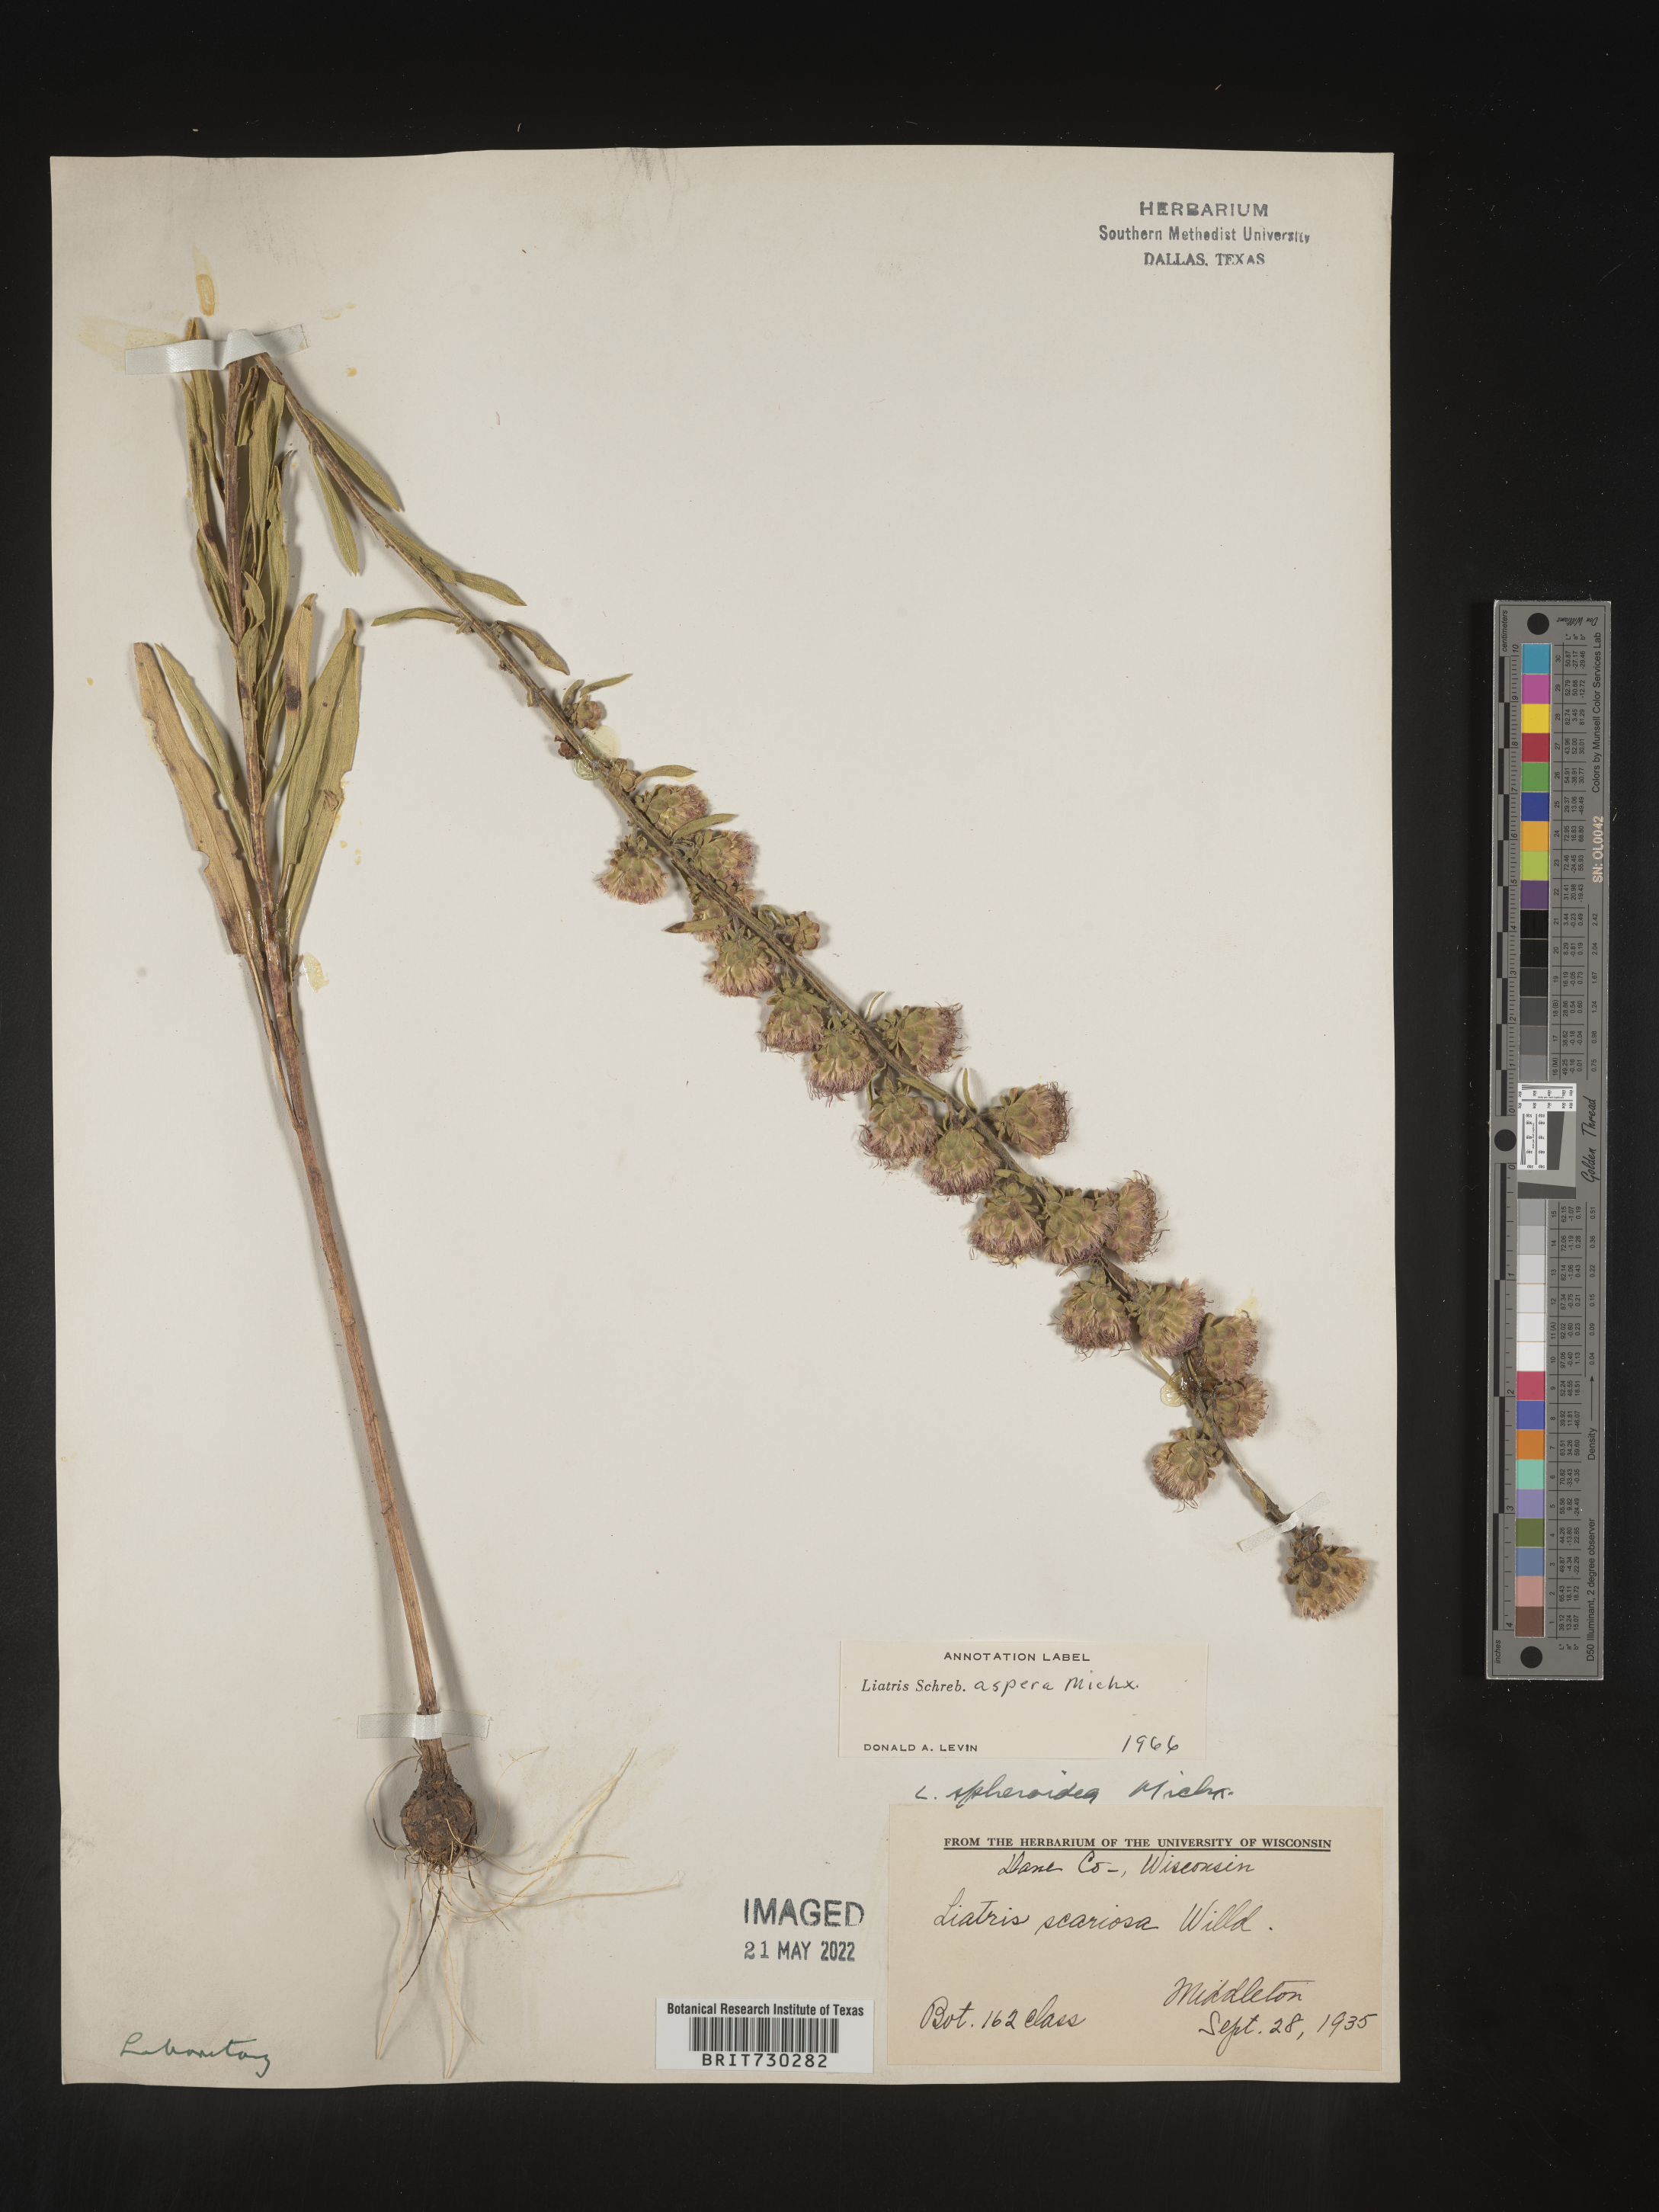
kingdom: Plantae
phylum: Tracheophyta
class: Magnoliopsida
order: Asterales
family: Asteraceae
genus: Liatris
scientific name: Liatris aspera
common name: Lacerate blazing-star
